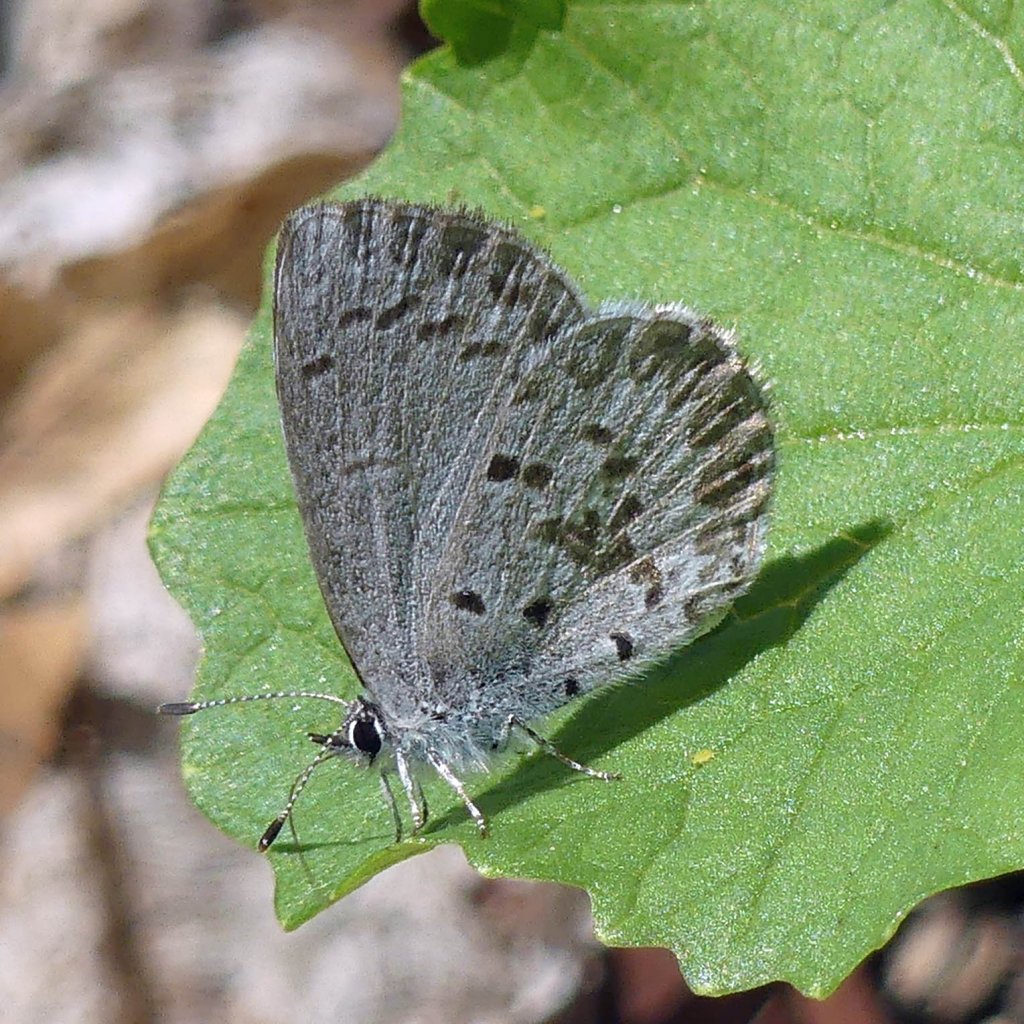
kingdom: Animalia
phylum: Arthropoda
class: Insecta
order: Lepidoptera
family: Lycaenidae
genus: Celastrina
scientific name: Celastrina lucia
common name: Northern Spring Azure
